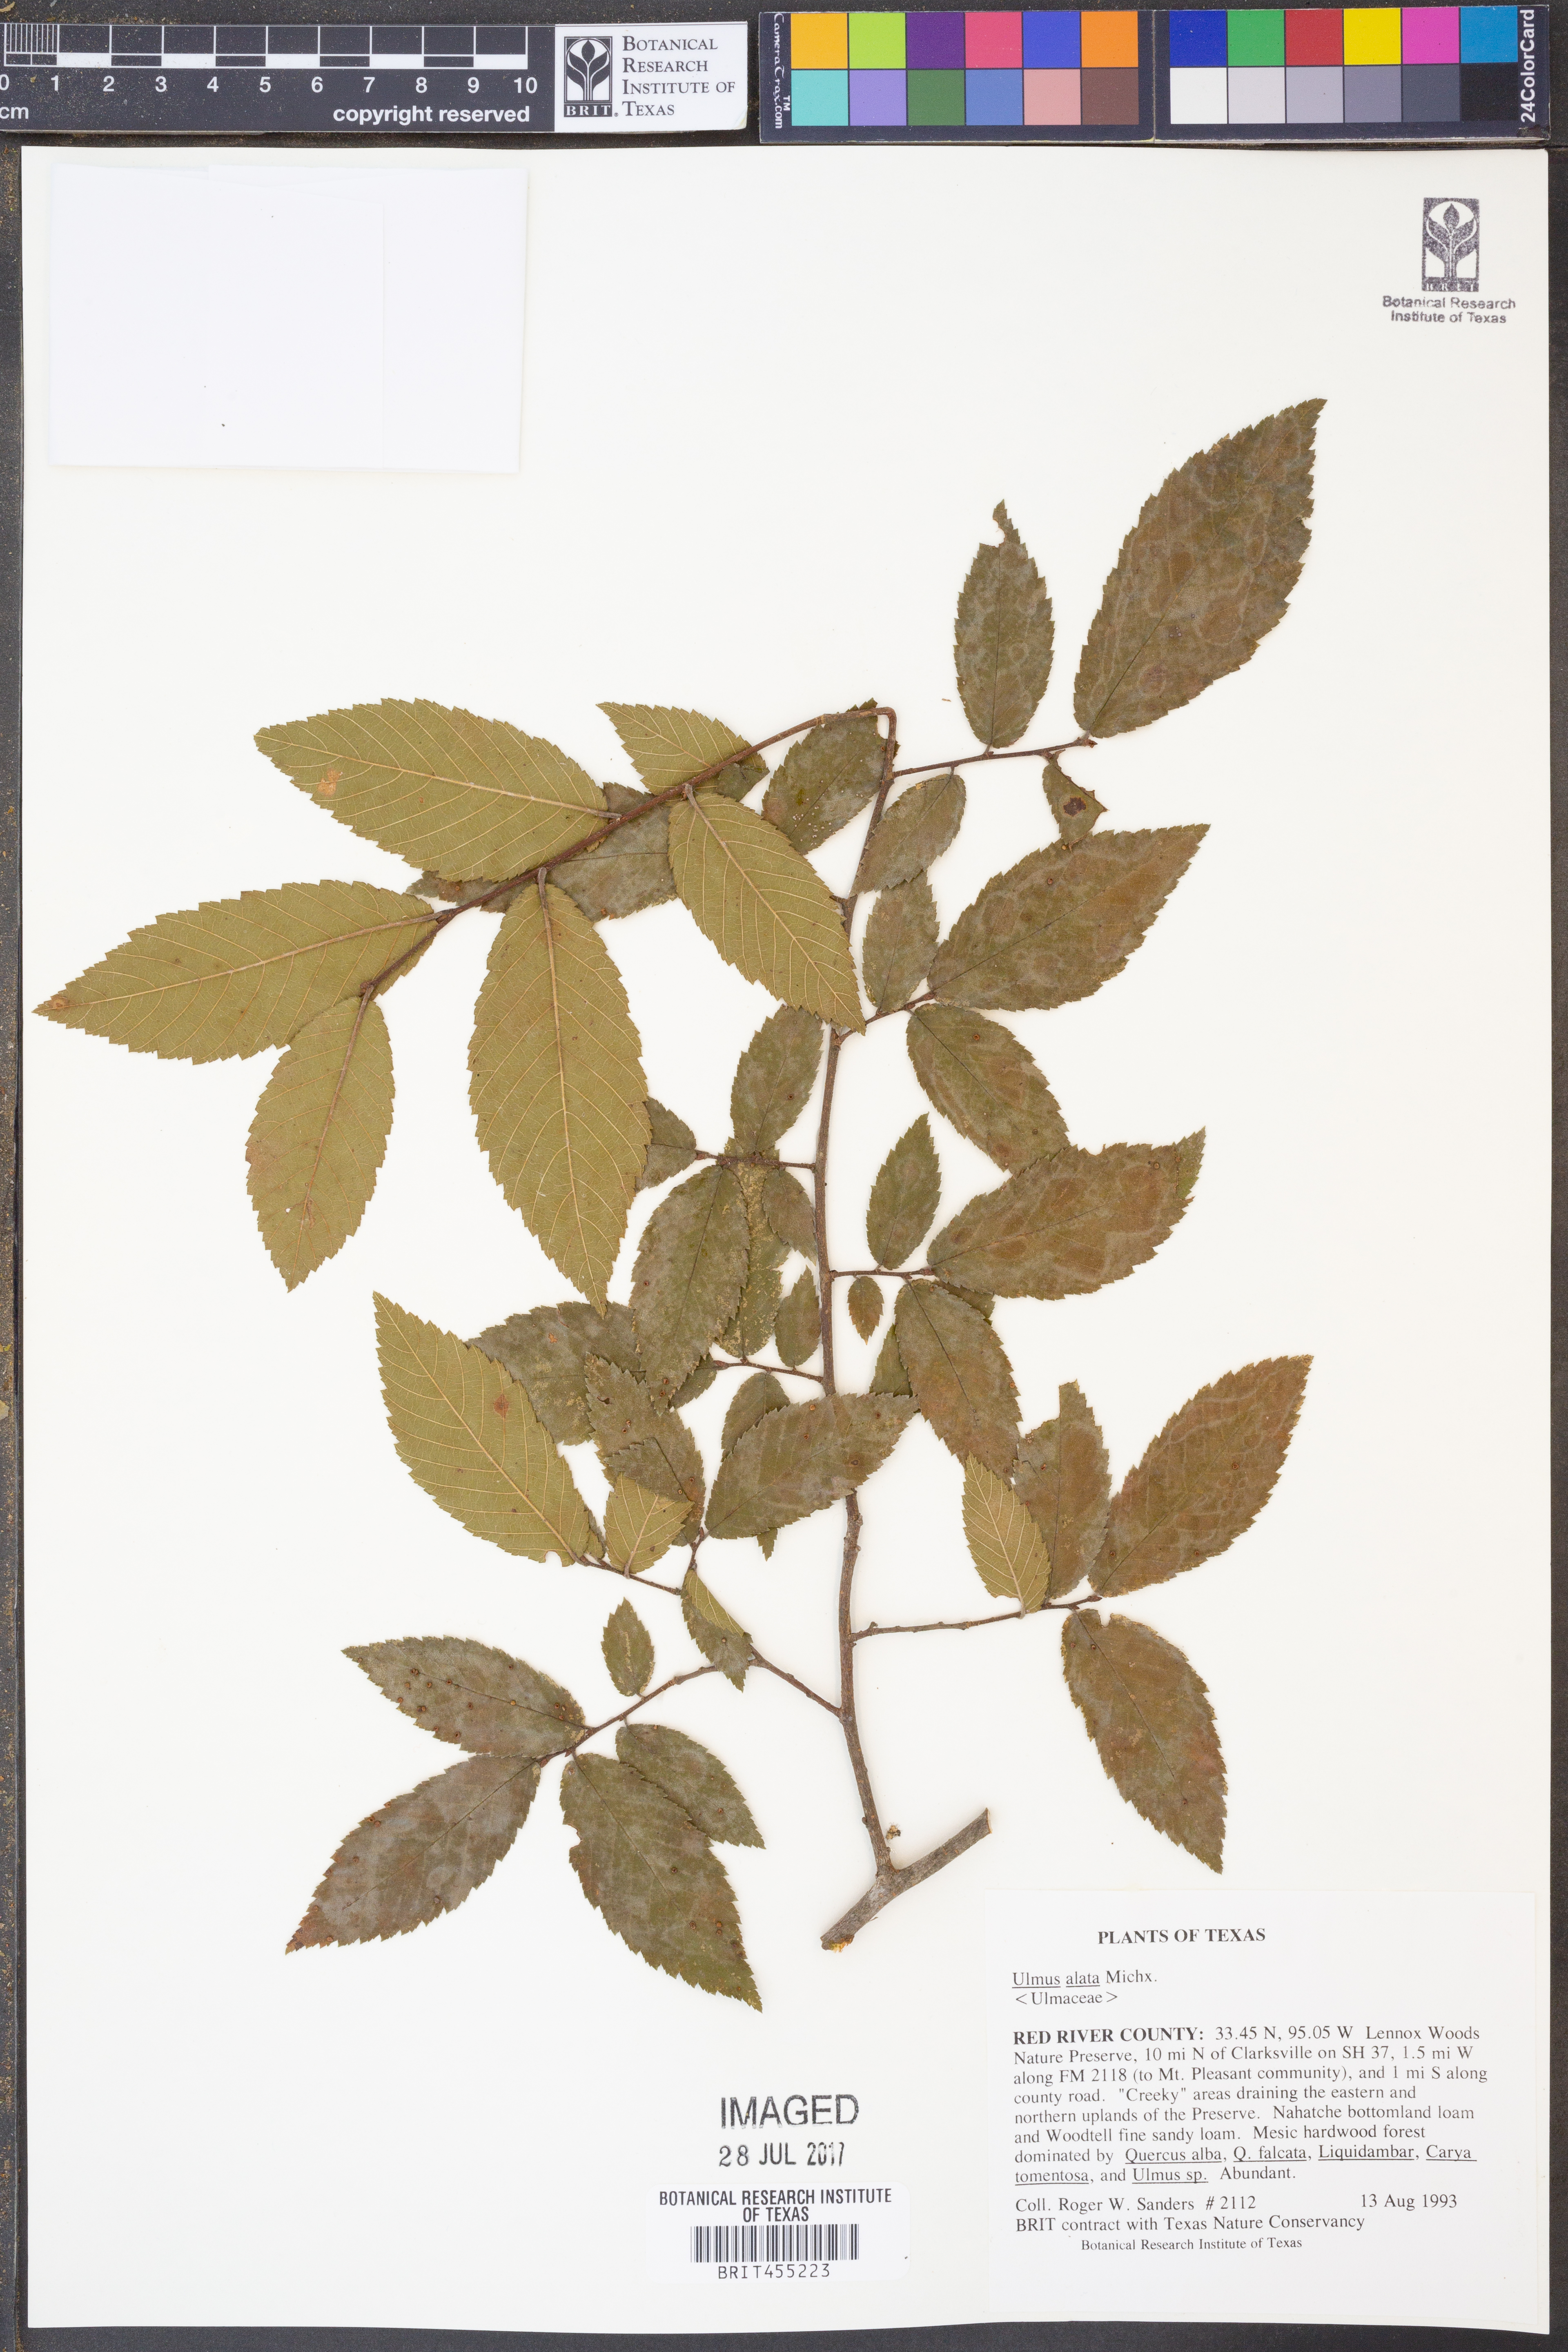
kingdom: Plantae
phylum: Tracheophyta
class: Magnoliopsida
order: Rosales
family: Ulmaceae
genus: Ulmus
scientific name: Ulmus alata
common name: Winged elm
